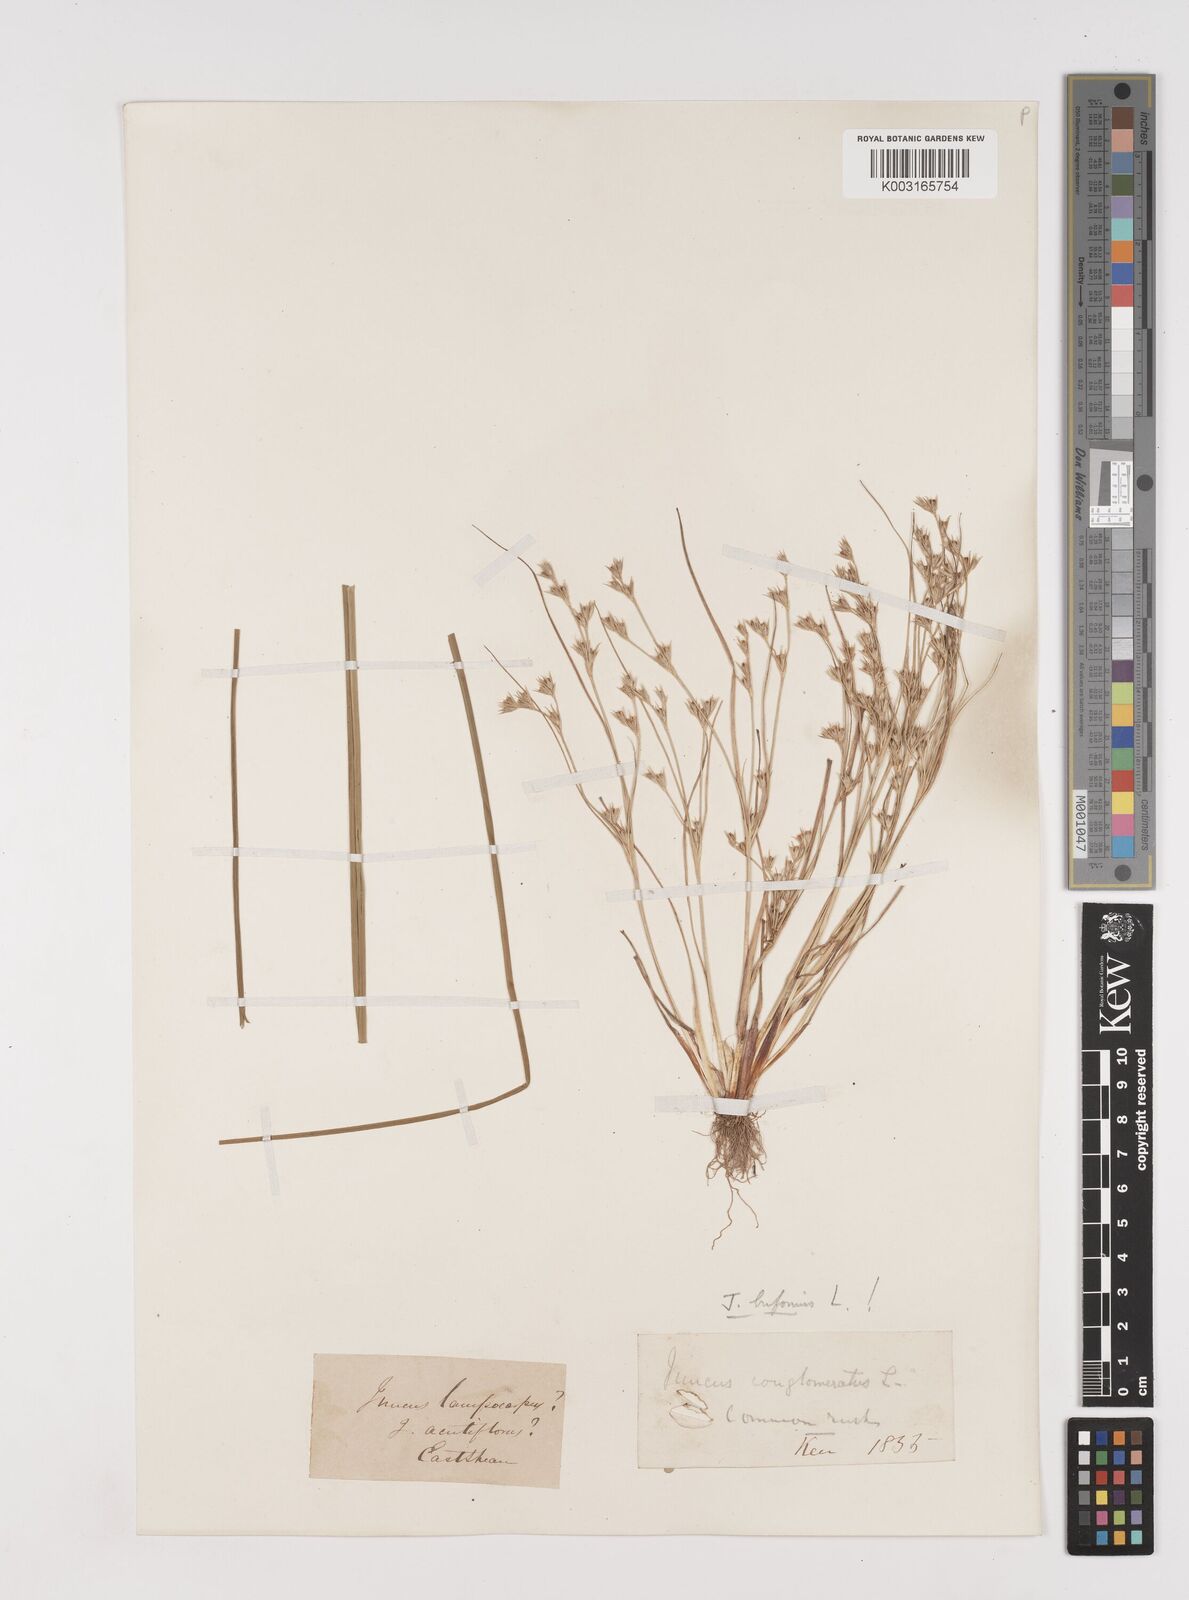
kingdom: Plantae
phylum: Tracheophyta
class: Liliopsida
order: Poales
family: Juncaceae
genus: Juncus
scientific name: Juncus bufonius
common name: Toad rush
